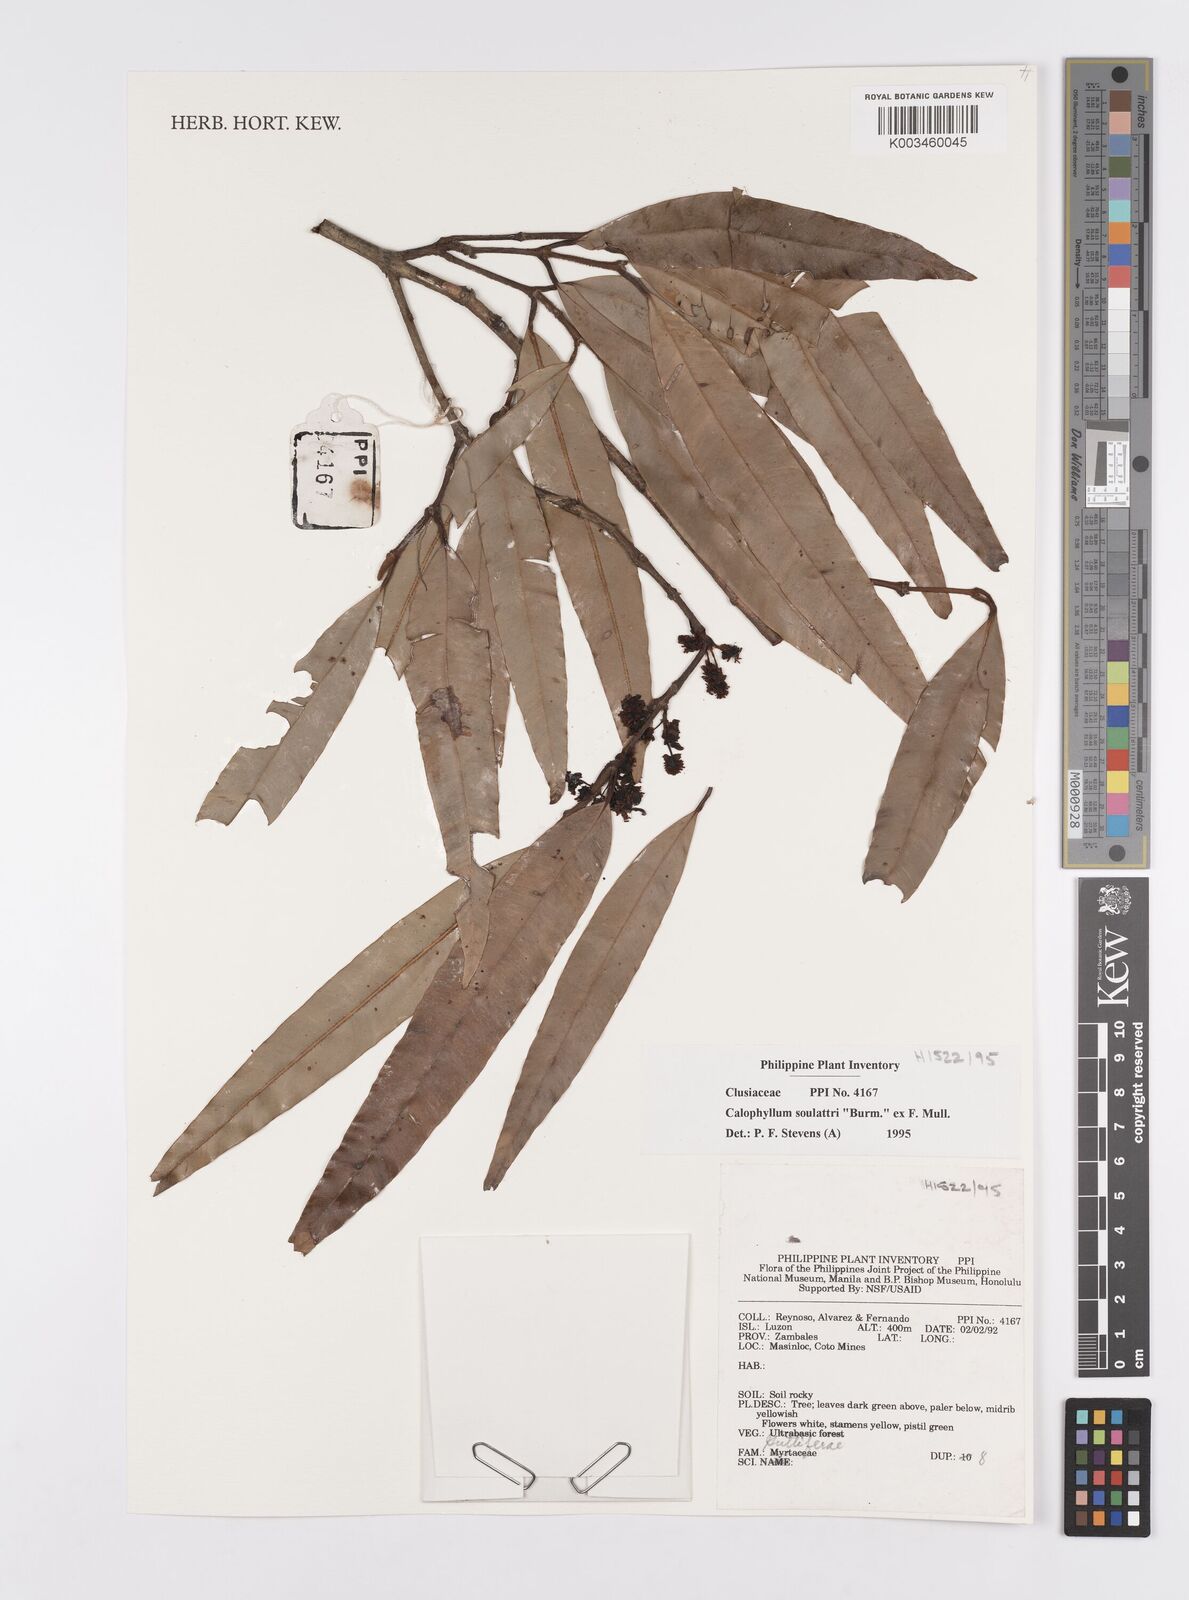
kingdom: Plantae
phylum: Tracheophyta
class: Magnoliopsida
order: Malpighiales
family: Calophyllaceae
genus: Calophyllum
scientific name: Calophyllum soulattri
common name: Bitangoor boonot
